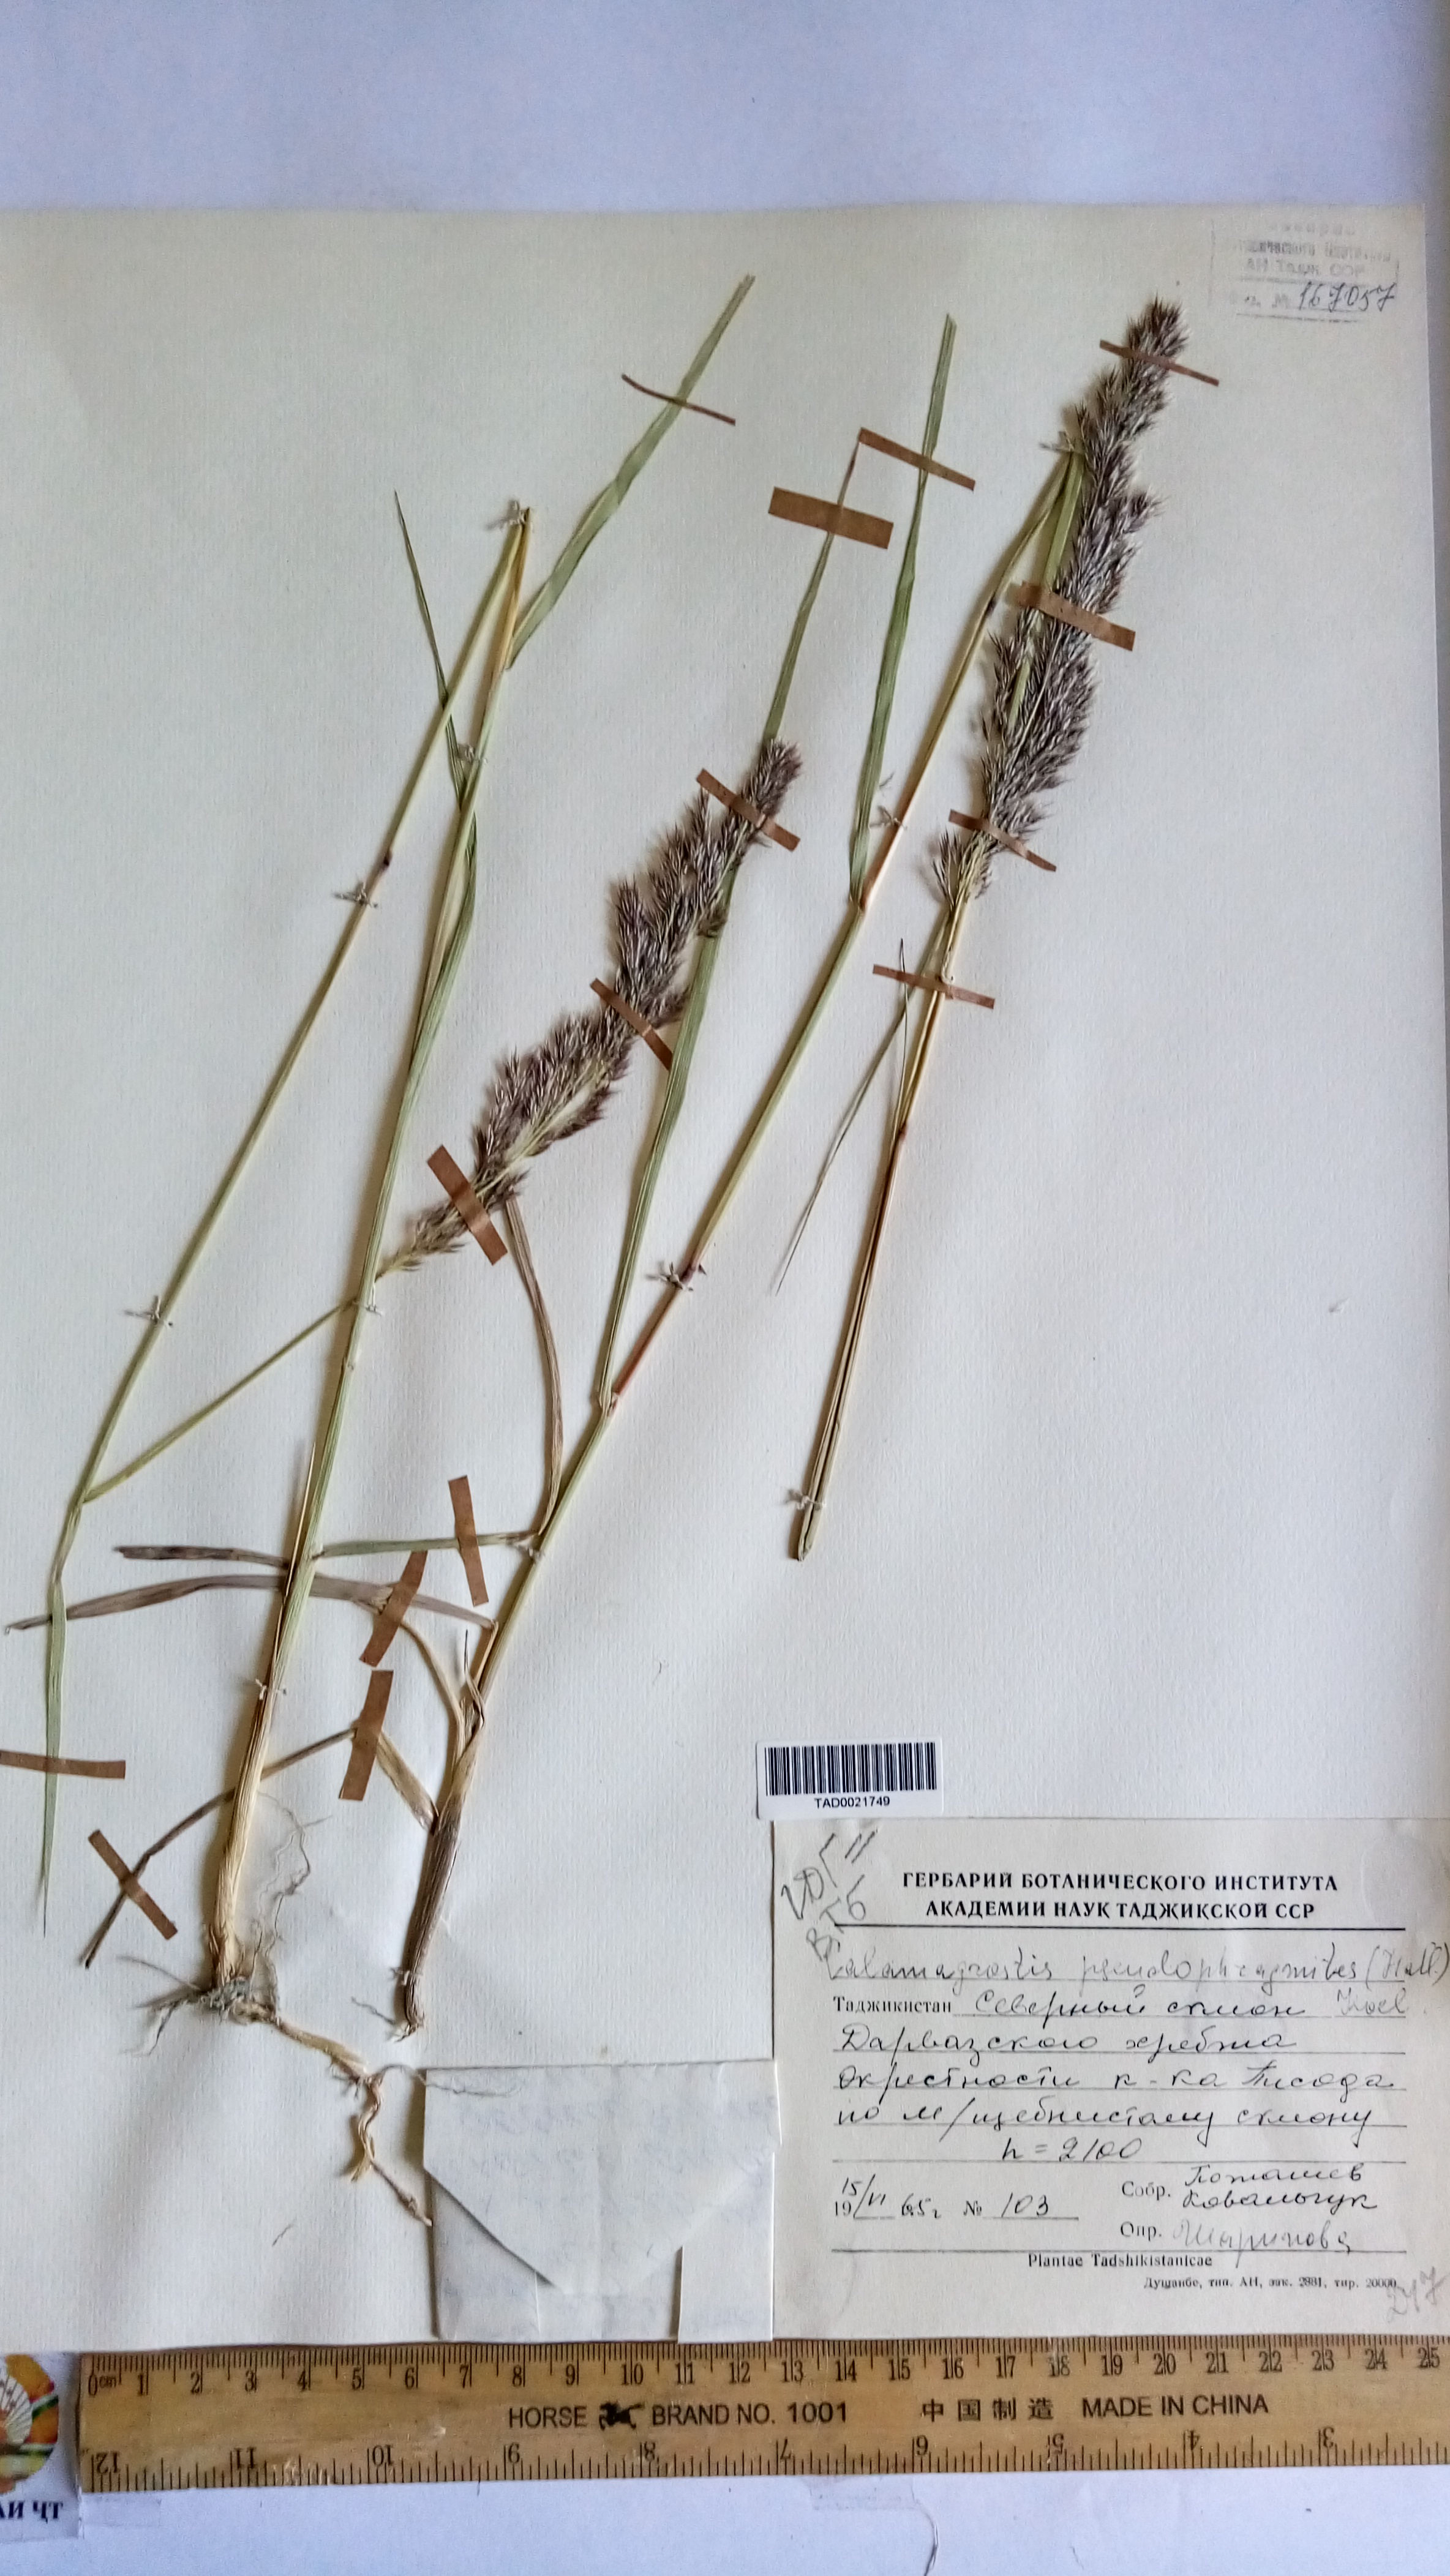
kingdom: Plantae
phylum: Tracheophyta
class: Liliopsida
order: Poales
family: Poaceae
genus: Calamagrostis
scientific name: Calamagrostis pseudophragmites
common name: Coastal small-reed
